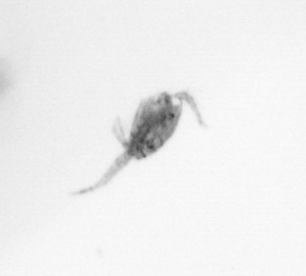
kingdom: Animalia
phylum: Arthropoda
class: Copepoda
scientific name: Copepoda
